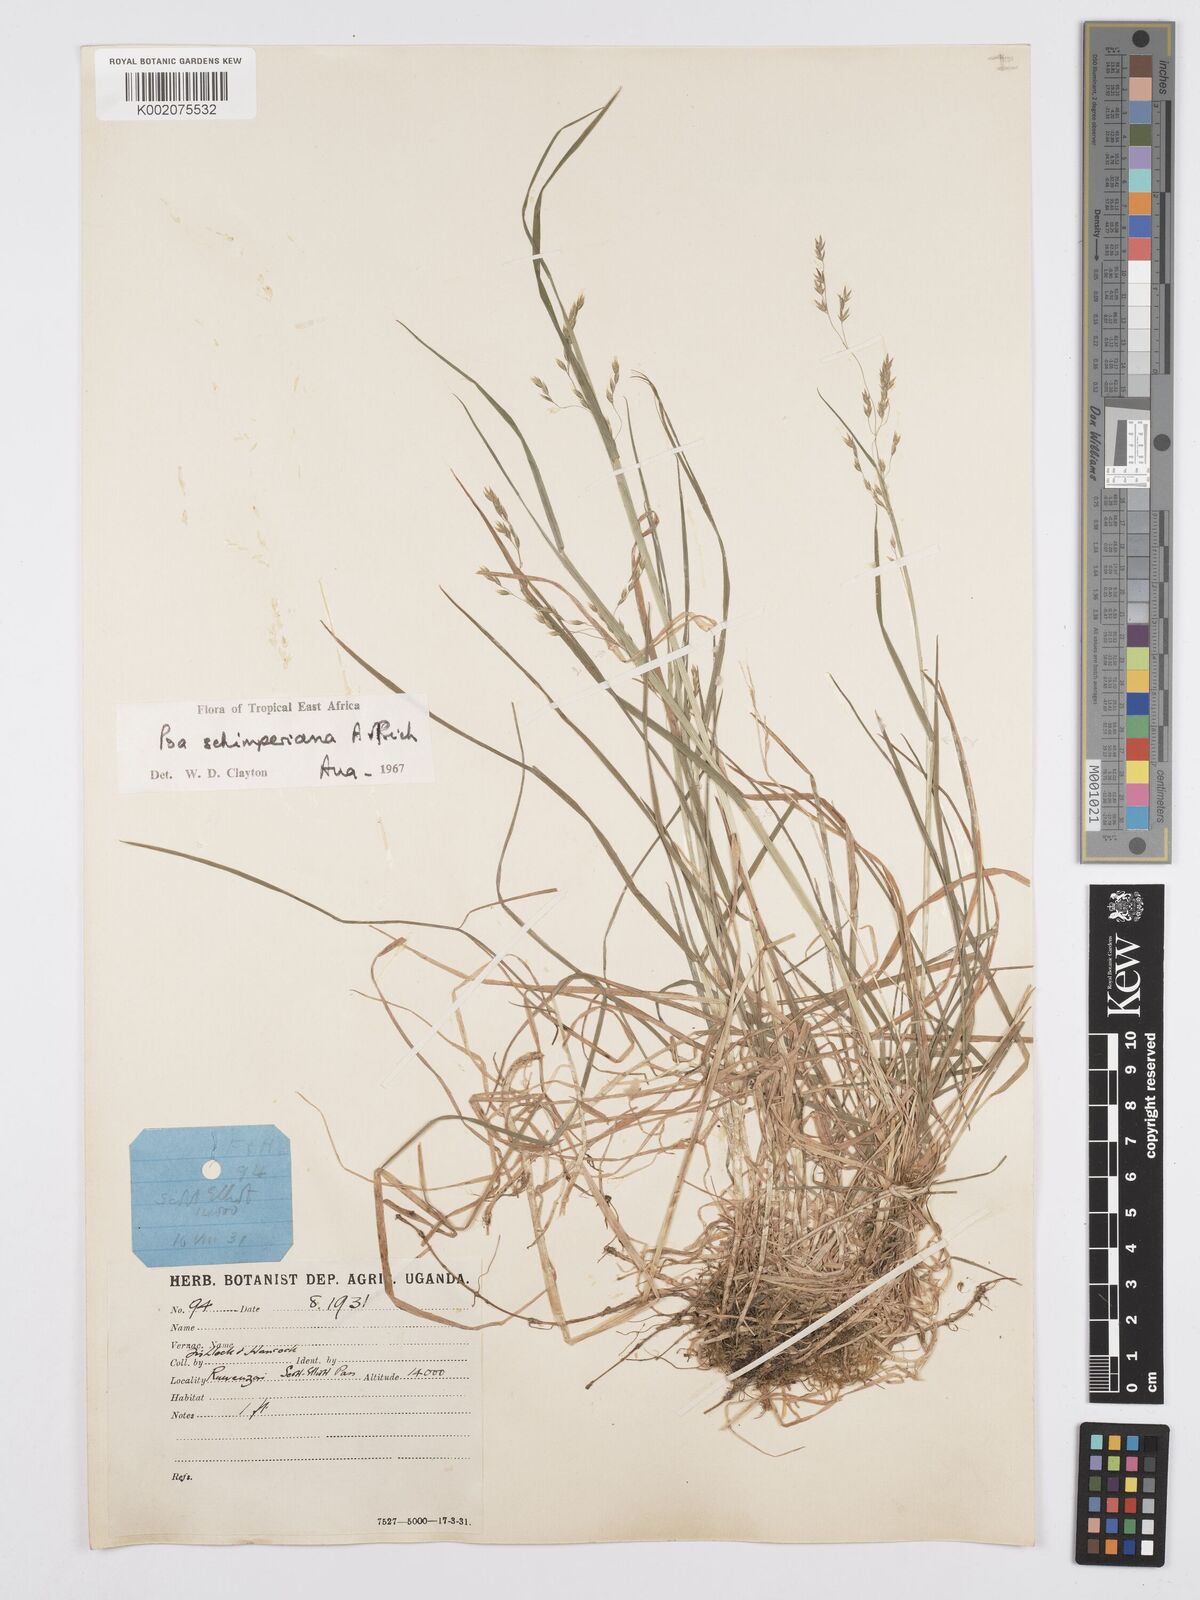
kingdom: Plantae
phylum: Tracheophyta
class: Liliopsida
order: Poales
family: Poaceae
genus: Poa
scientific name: Poa schimperiana
